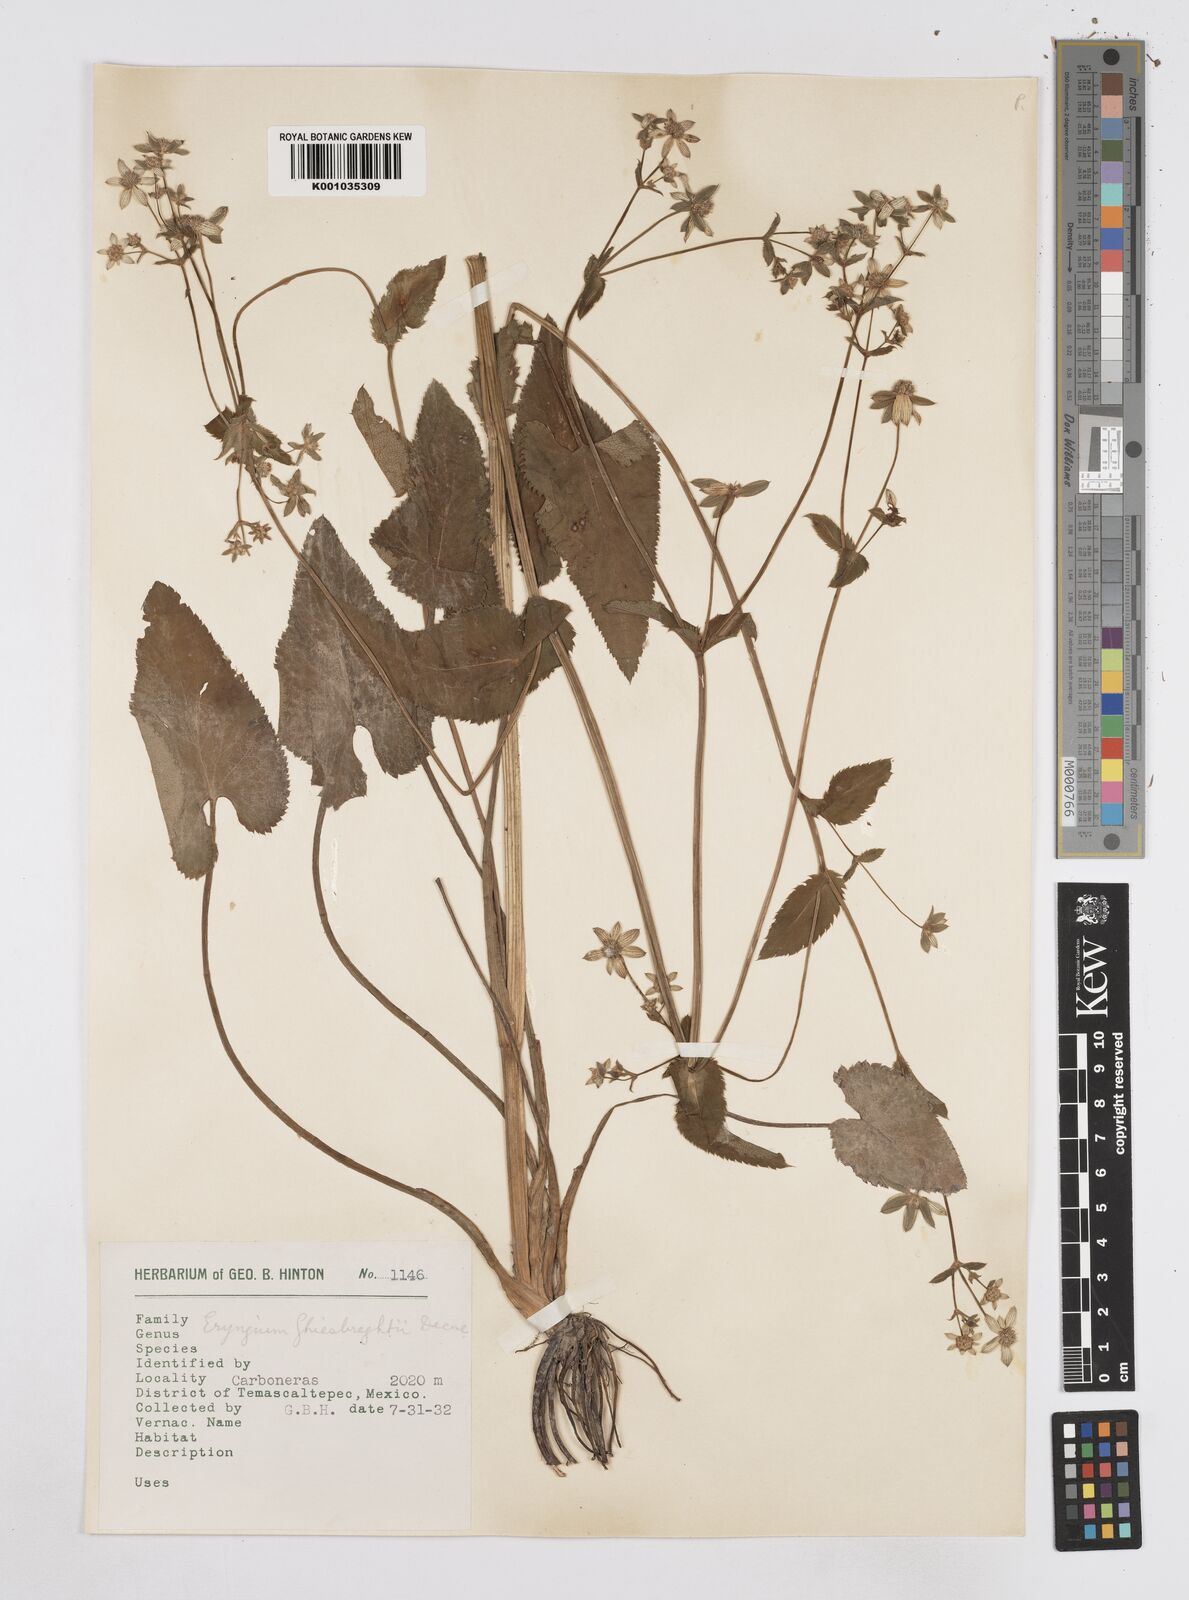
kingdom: Plantae
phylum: Tracheophyta
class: Magnoliopsida
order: Apiales
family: Apiaceae
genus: Eryngium
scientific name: Eryngium ghiesbreghtii
